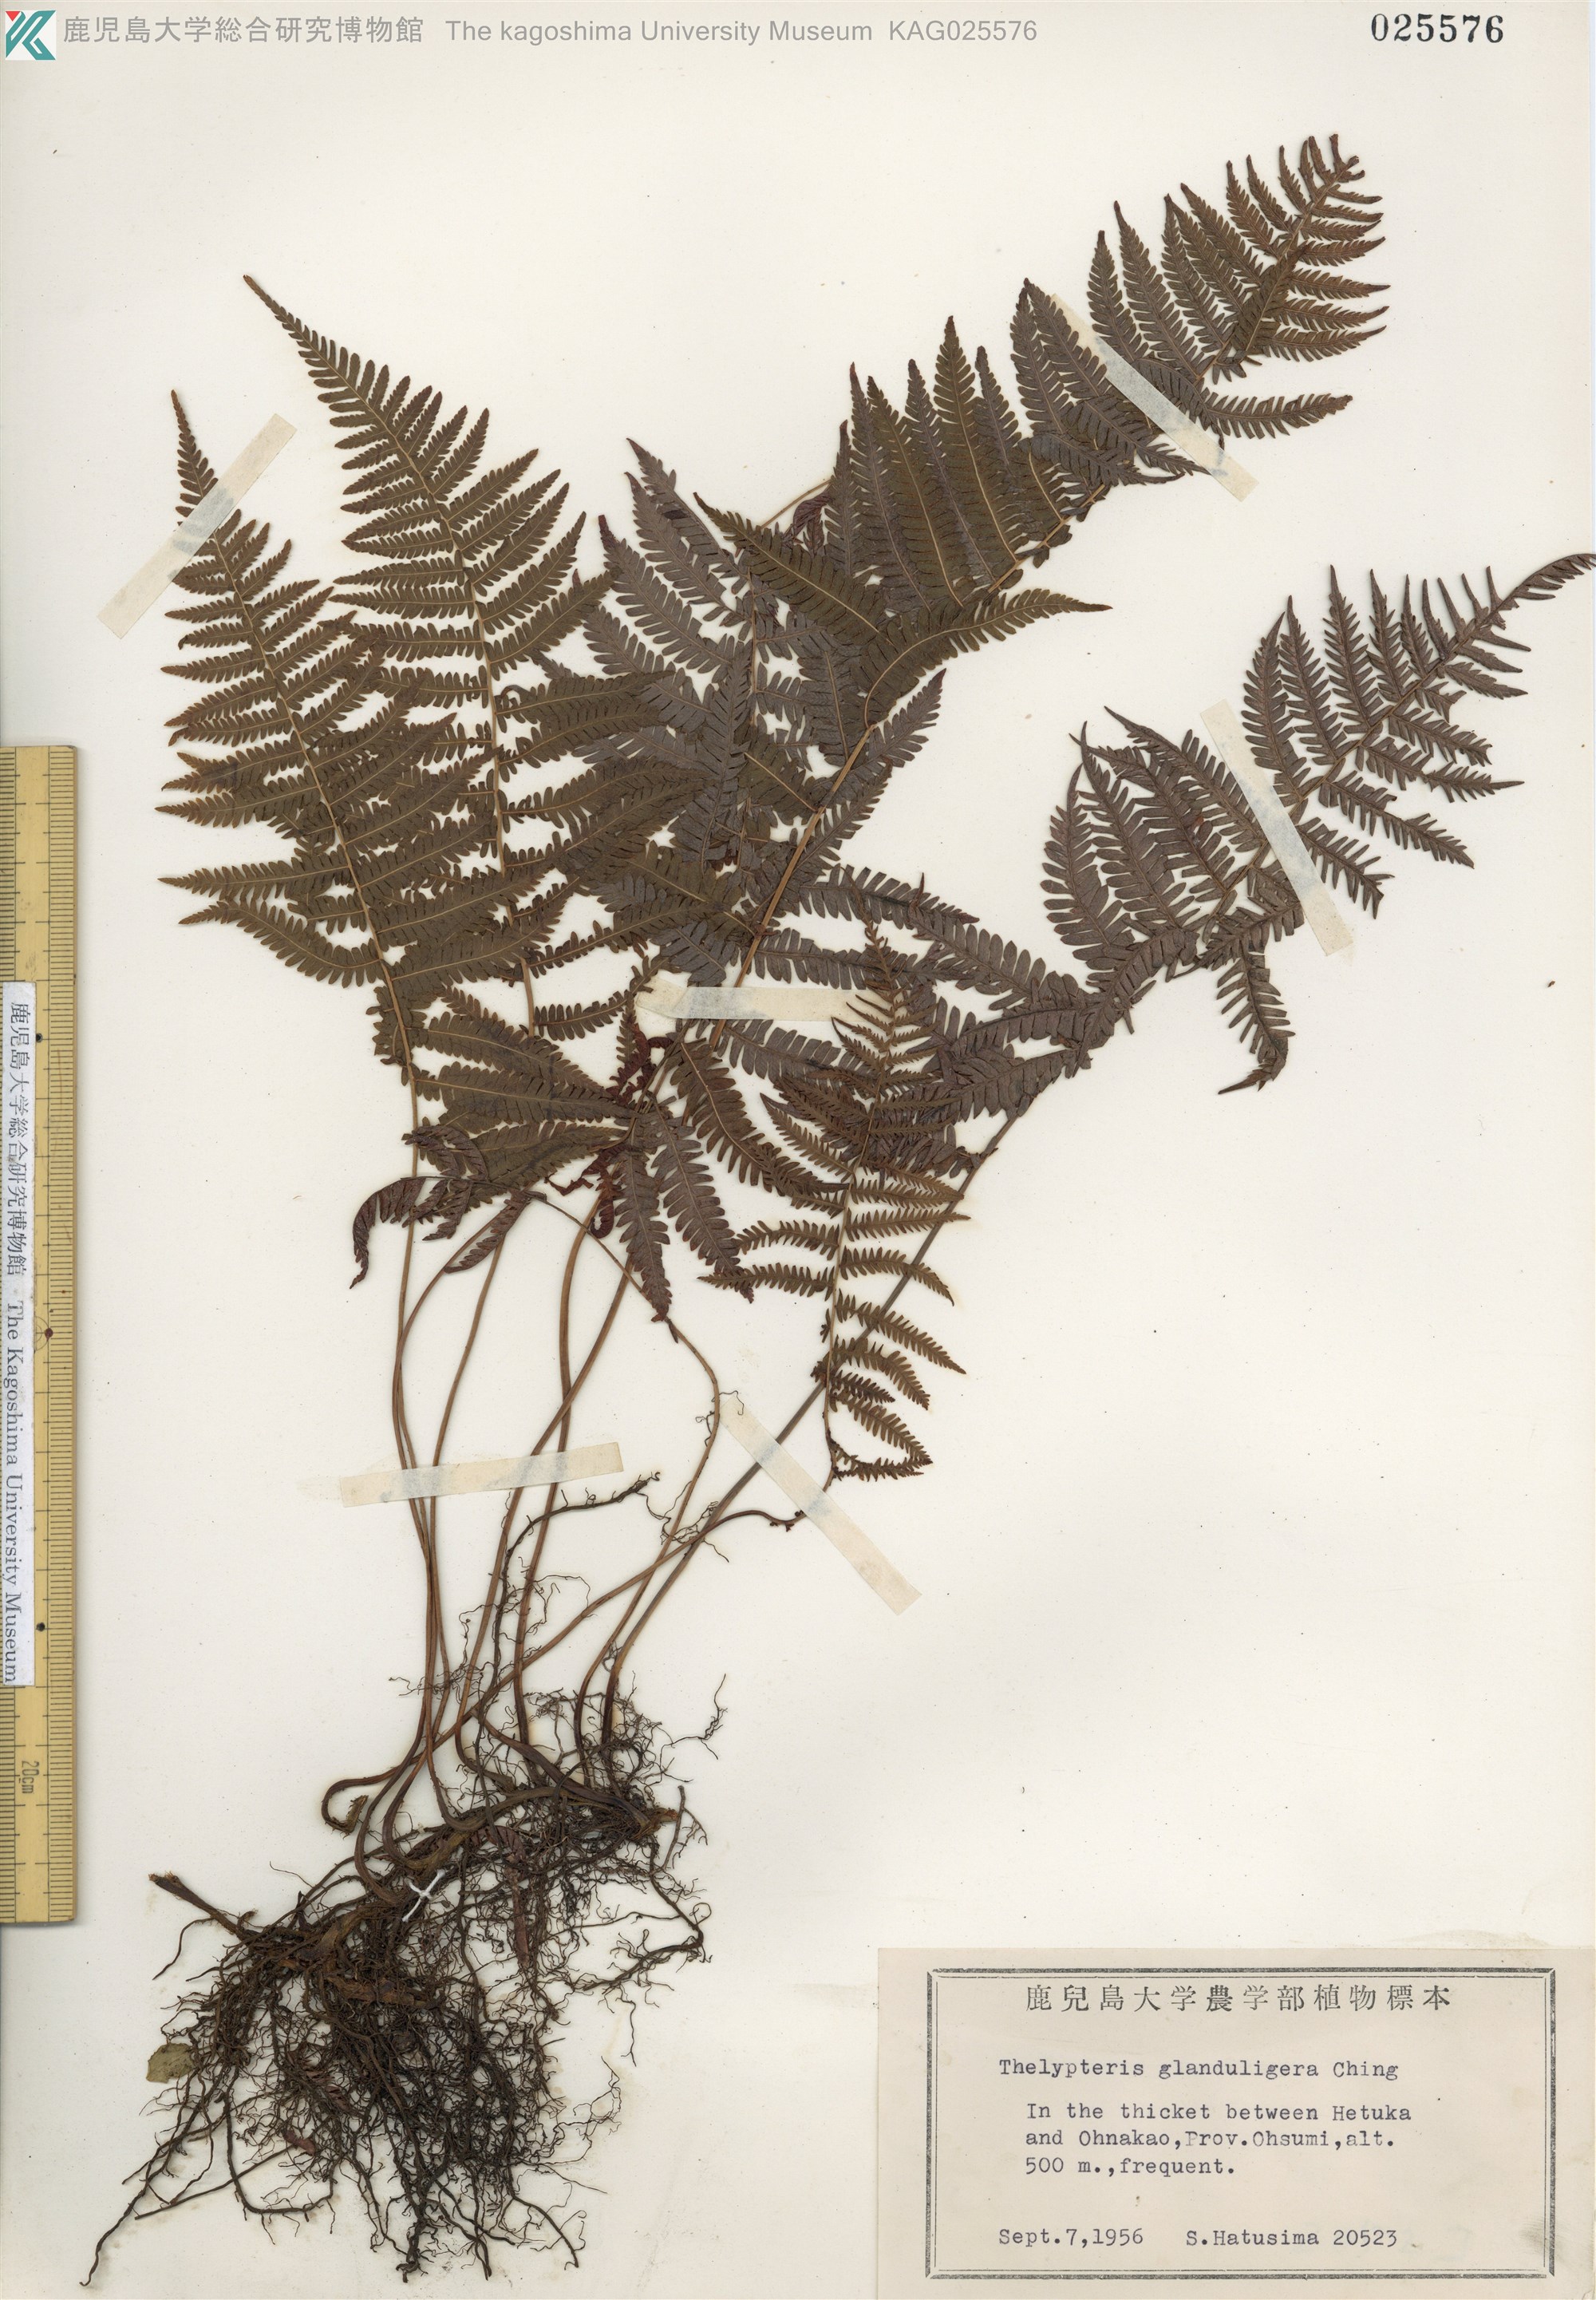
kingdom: Plantae
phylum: Tracheophyta
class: Polypodiopsida
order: Polypodiales
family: Thelypteridaceae
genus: Amauropelta
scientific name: Amauropelta glanduligera
